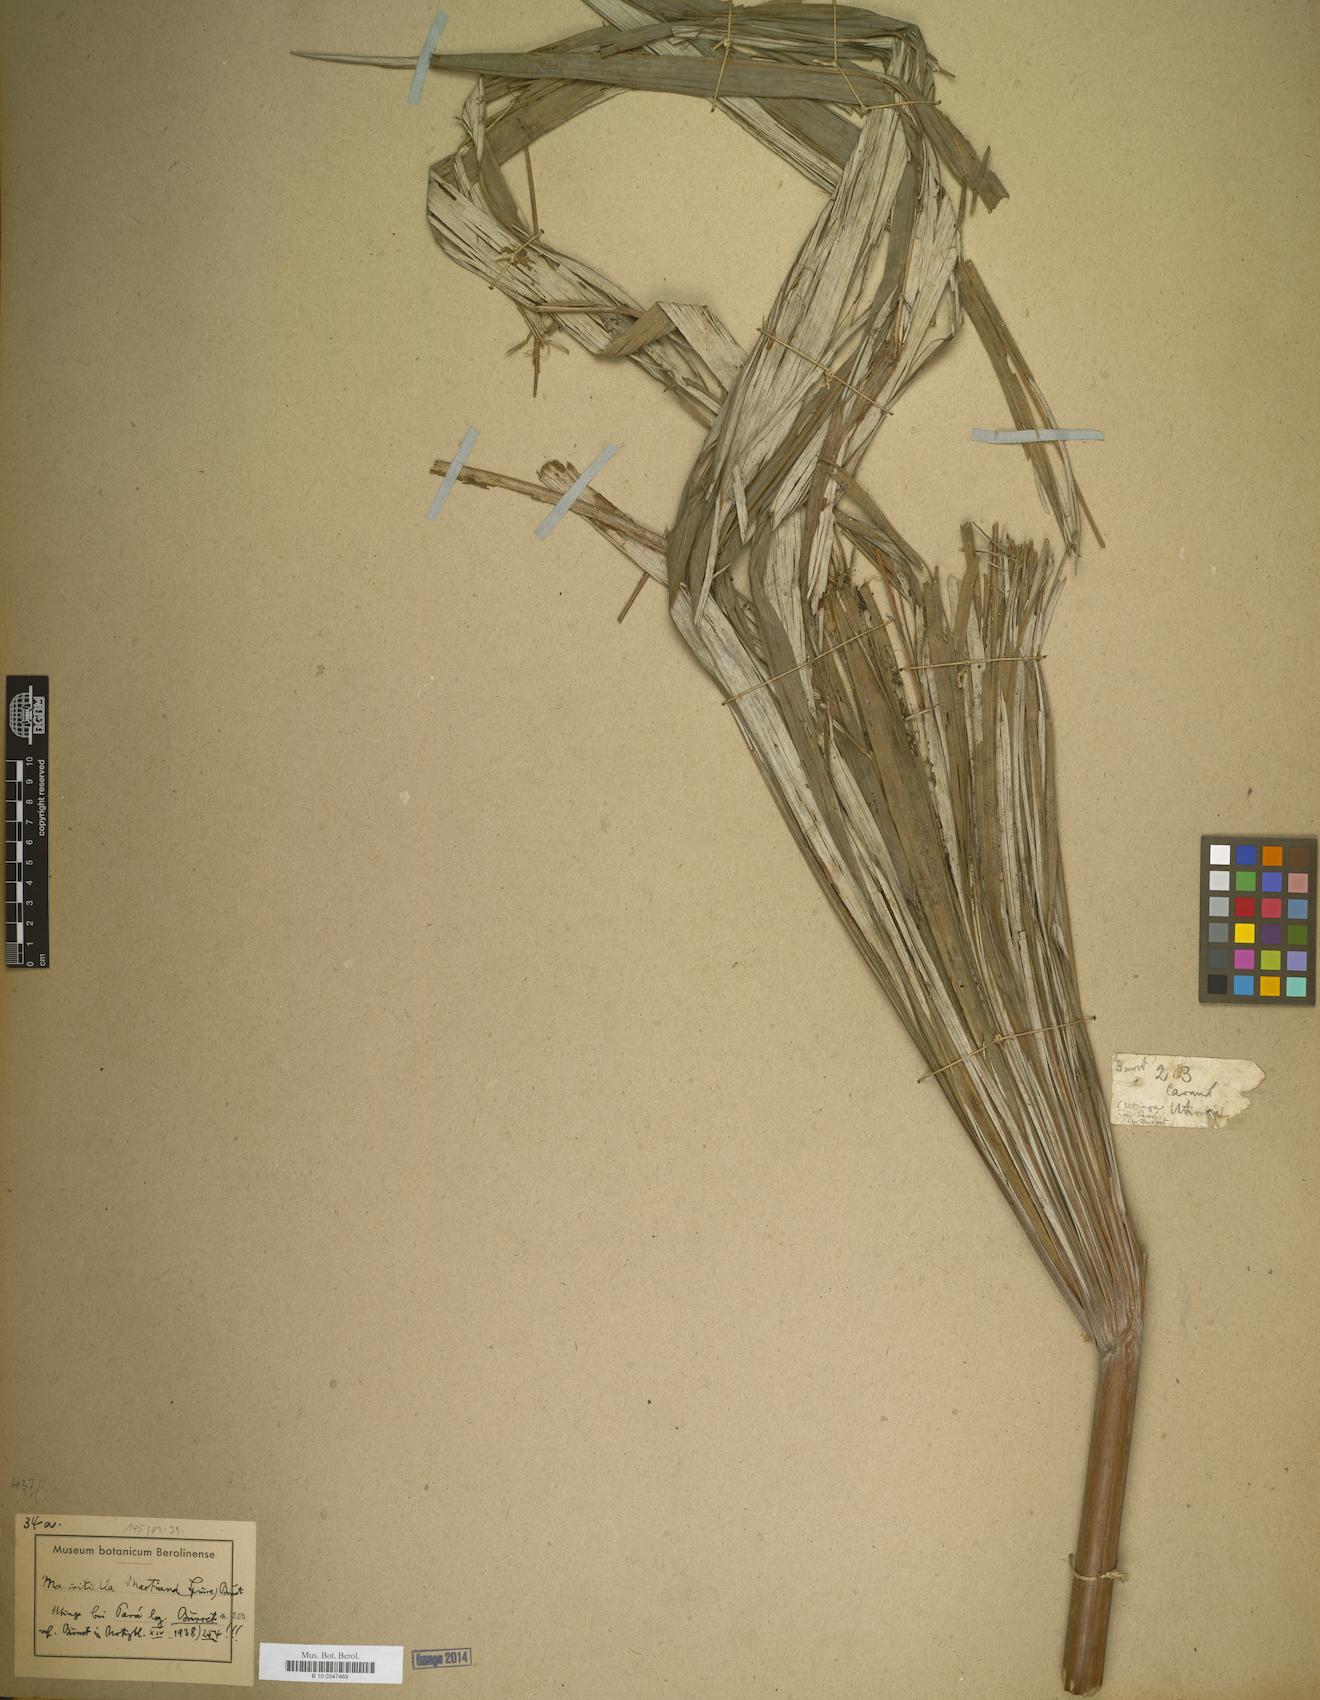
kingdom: Plantae
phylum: Tracheophyta
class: Liliopsida
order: Arecales
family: Arecaceae
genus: Mauritiella
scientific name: Mauritiella
